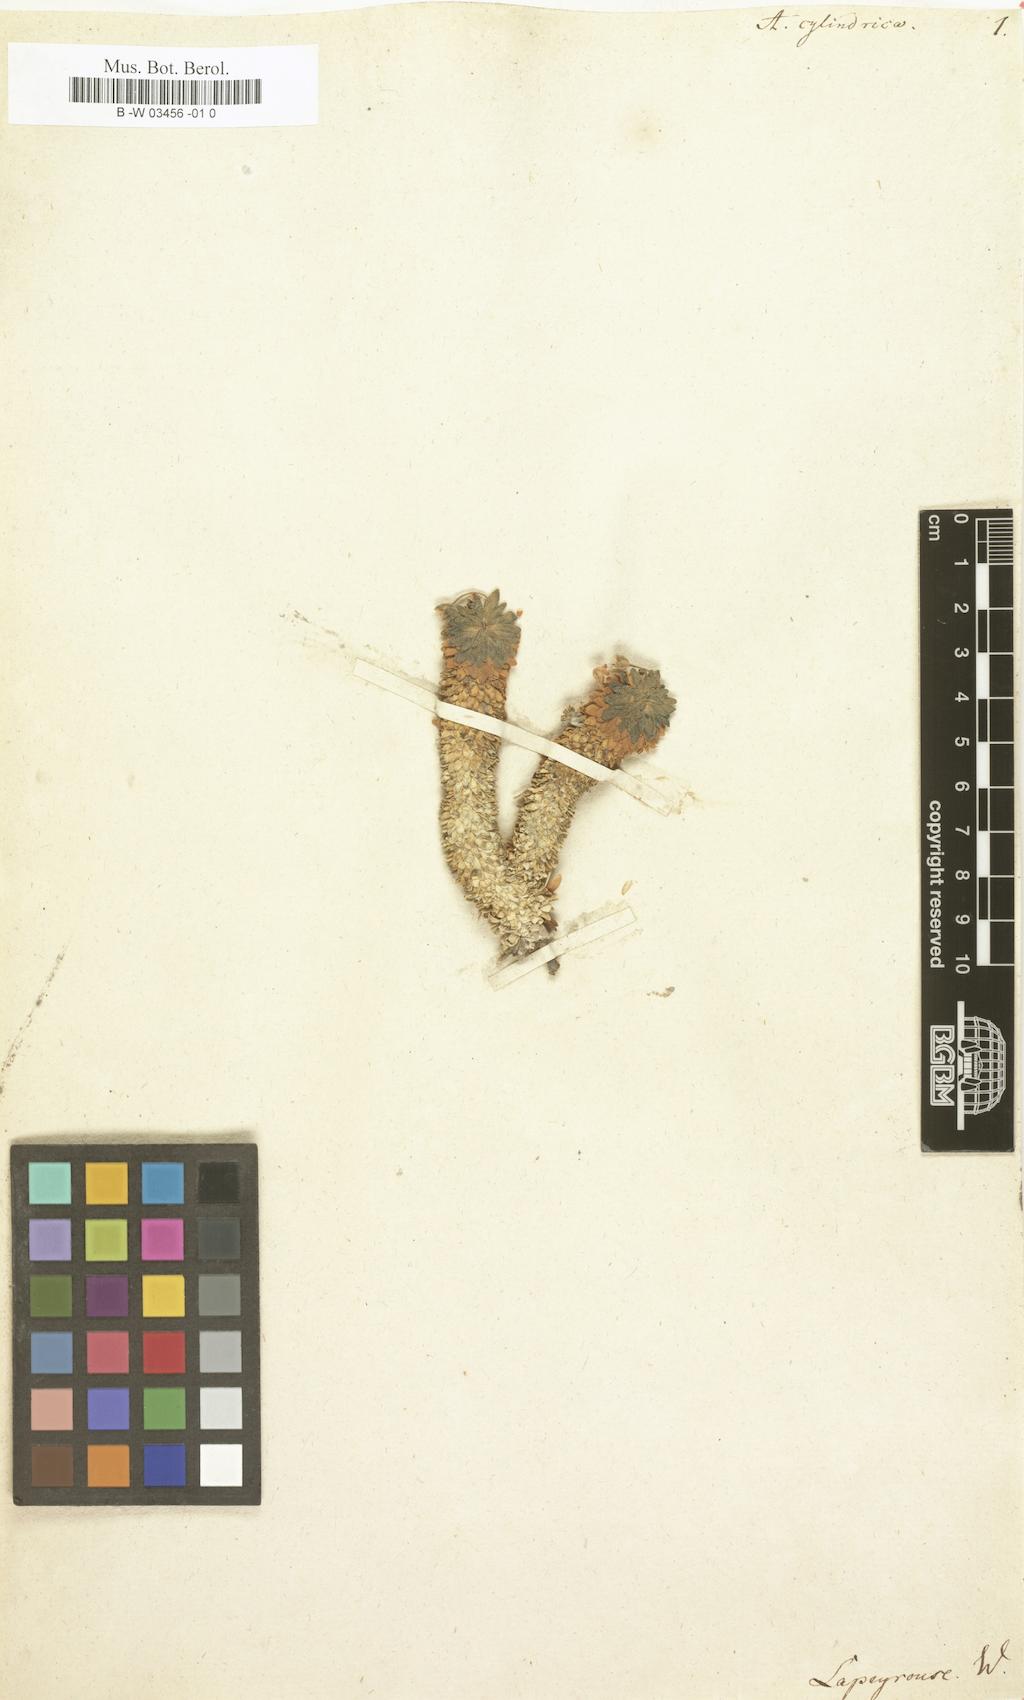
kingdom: Plantae
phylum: Tracheophyta
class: Magnoliopsida
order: Ericales
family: Primulaceae
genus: Androsace
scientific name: Androsace cylindrica
